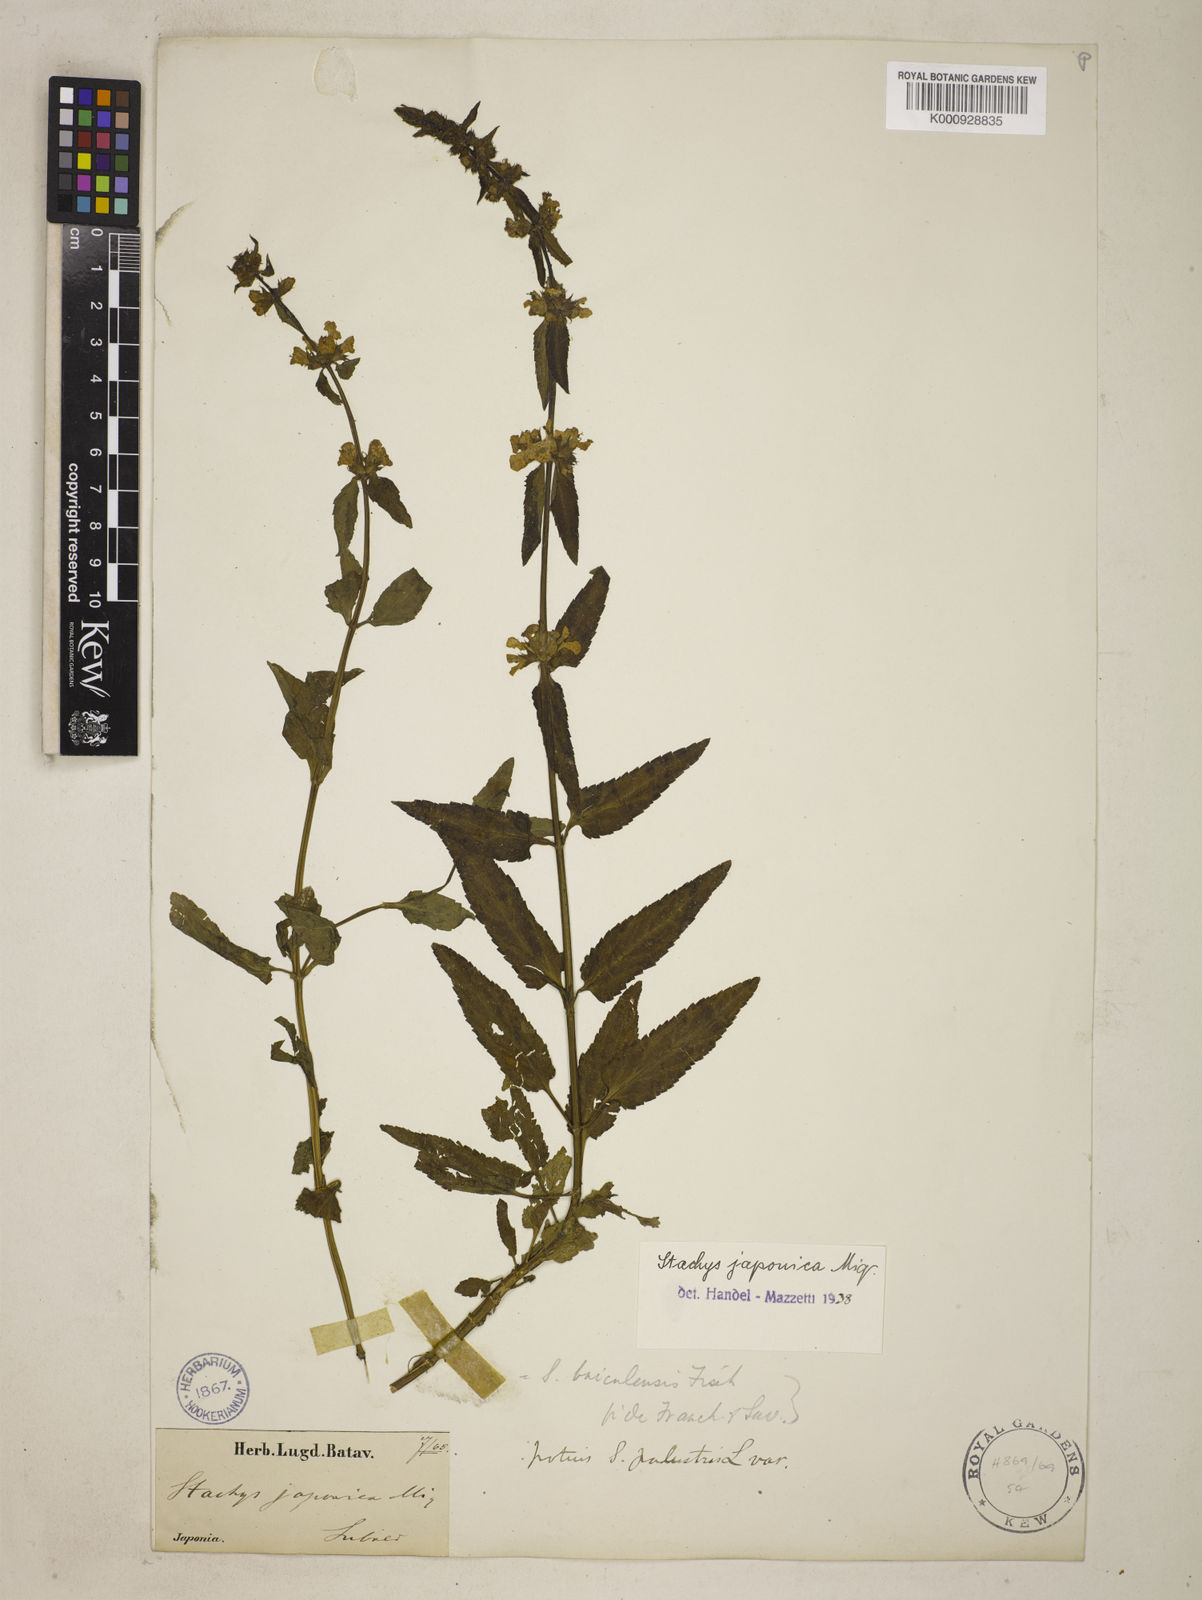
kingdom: Plantae
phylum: Tracheophyta
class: Magnoliopsida
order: Lamiales
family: Lamiaceae
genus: Stachys
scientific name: Stachys riederi
